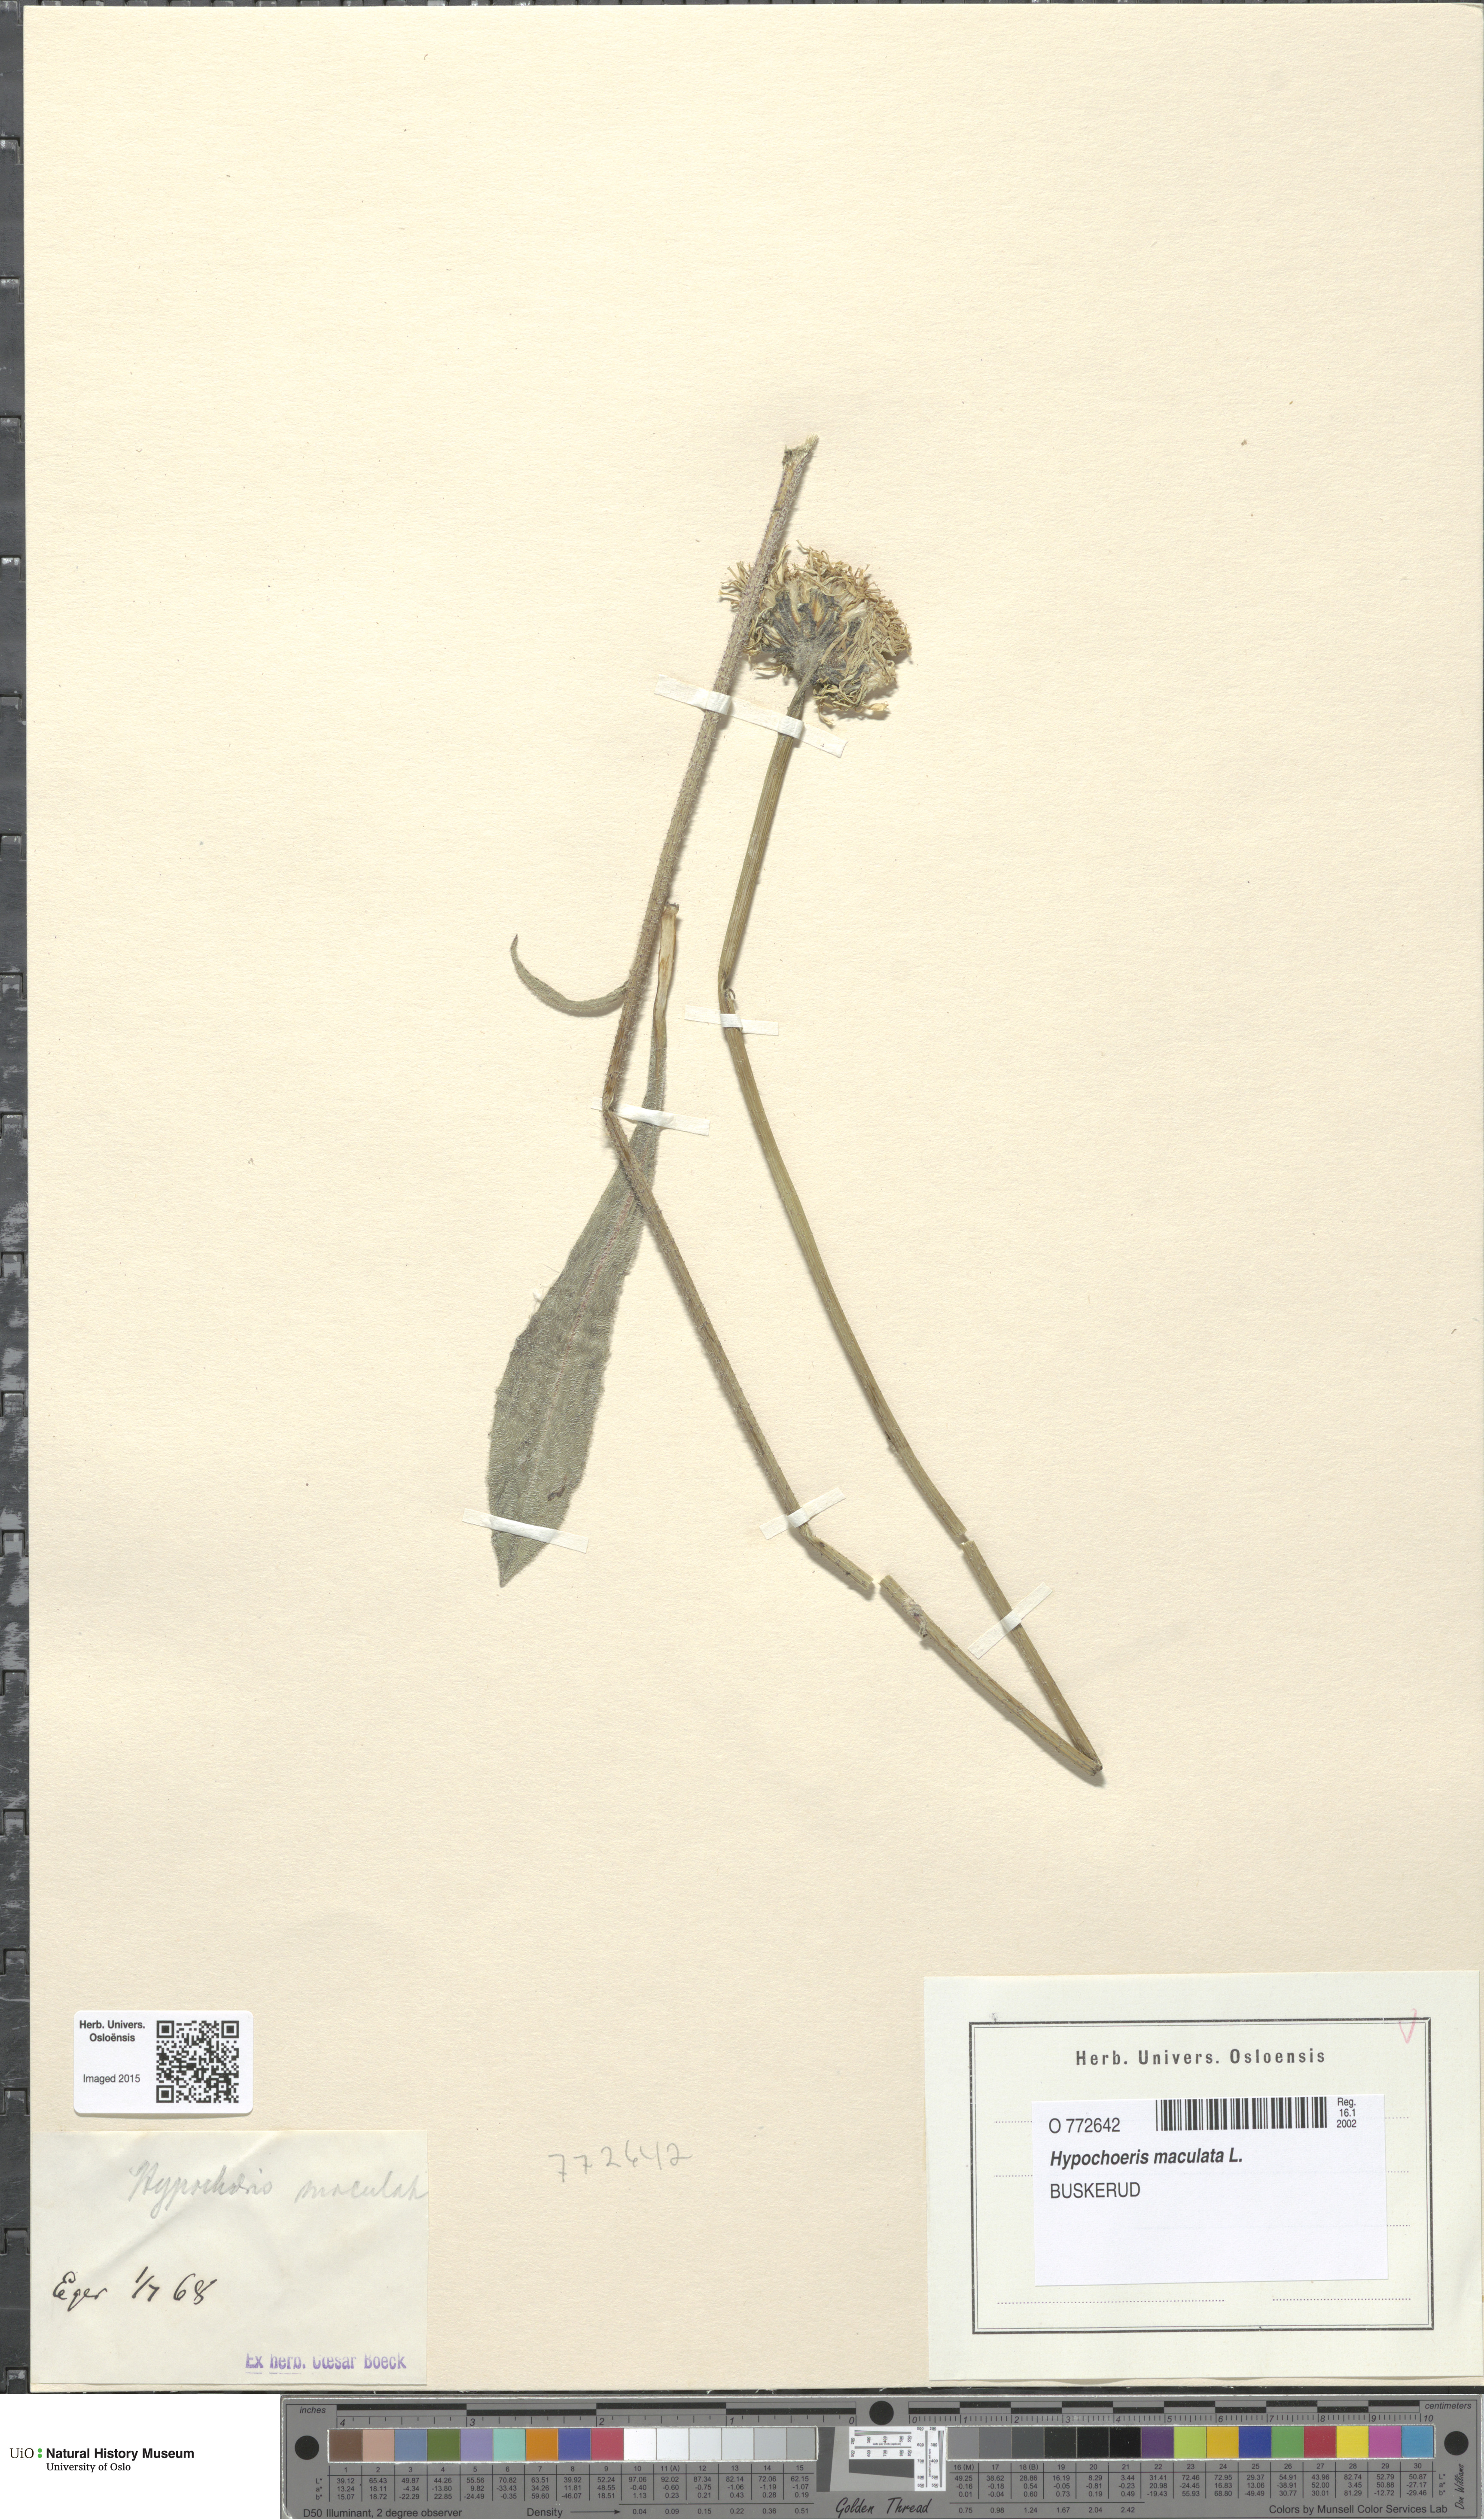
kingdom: Plantae
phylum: Tracheophyta
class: Magnoliopsida
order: Asterales
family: Asteraceae
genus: Trommsdorffia
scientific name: Trommsdorffia maculata
